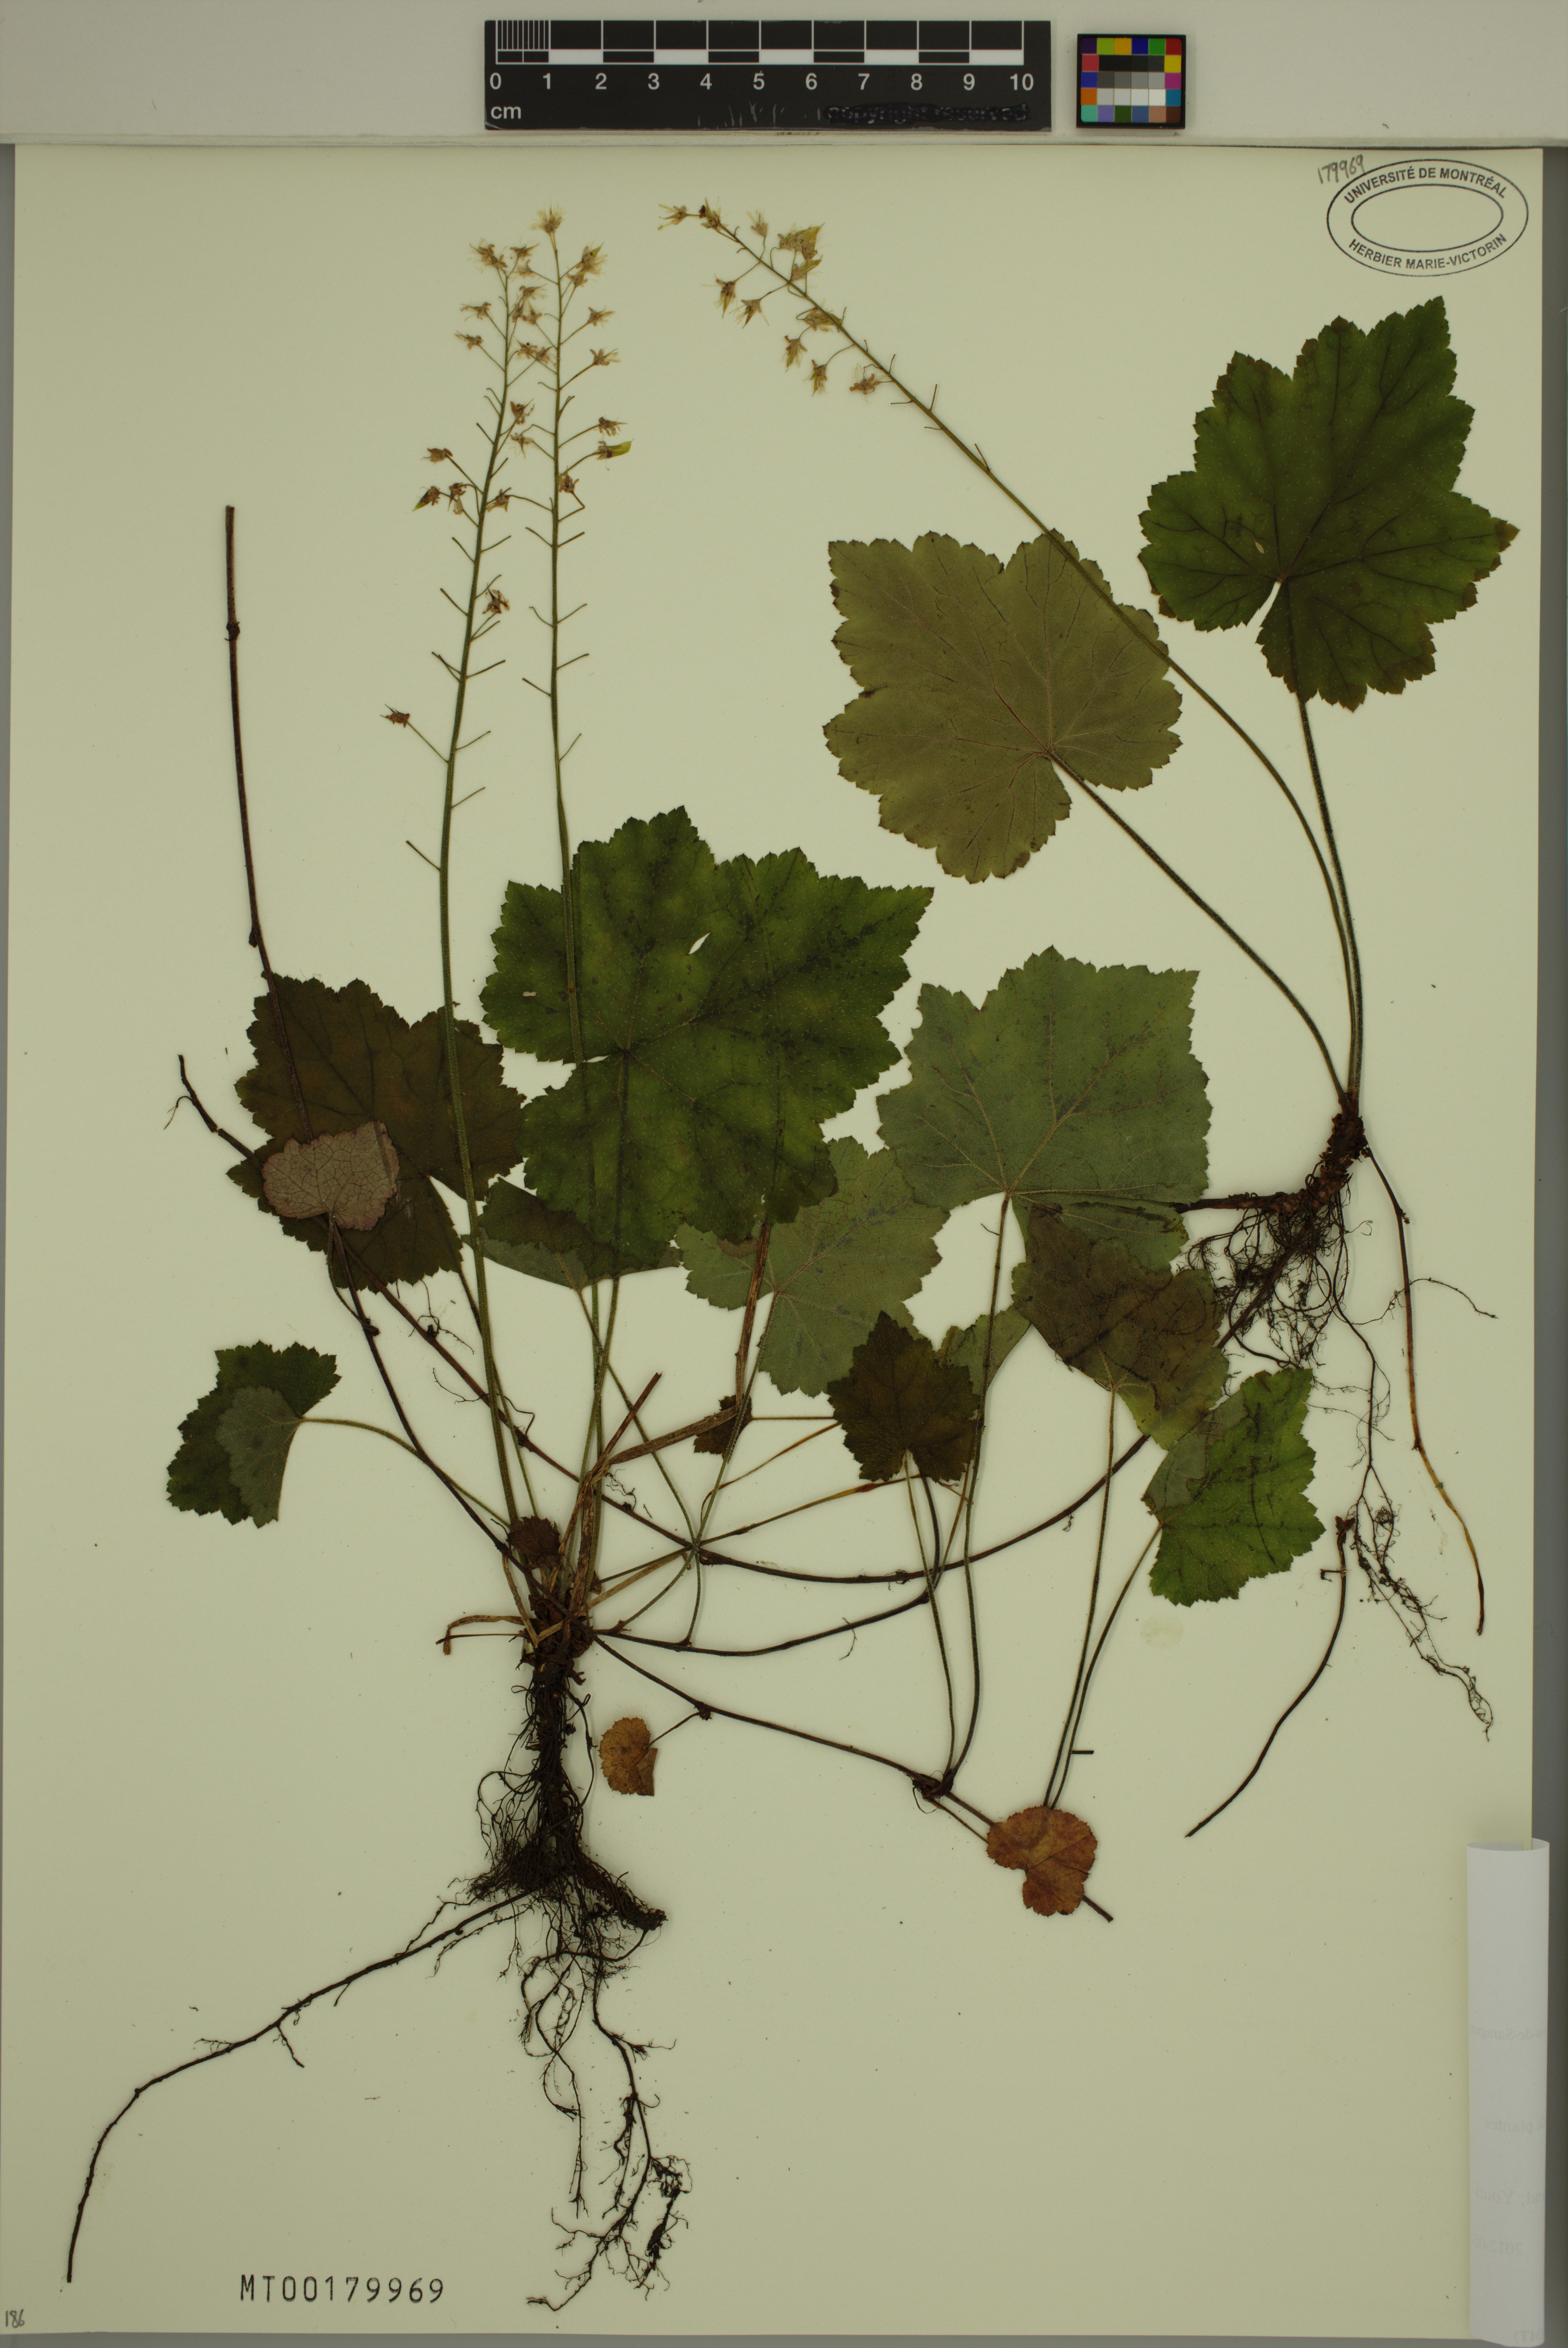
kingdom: Plantae
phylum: Tracheophyta
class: Magnoliopsida
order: Saxifragales
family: Saxifragaceae
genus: Tiarella
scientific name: Tiarella cordifolia
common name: Foamflower
